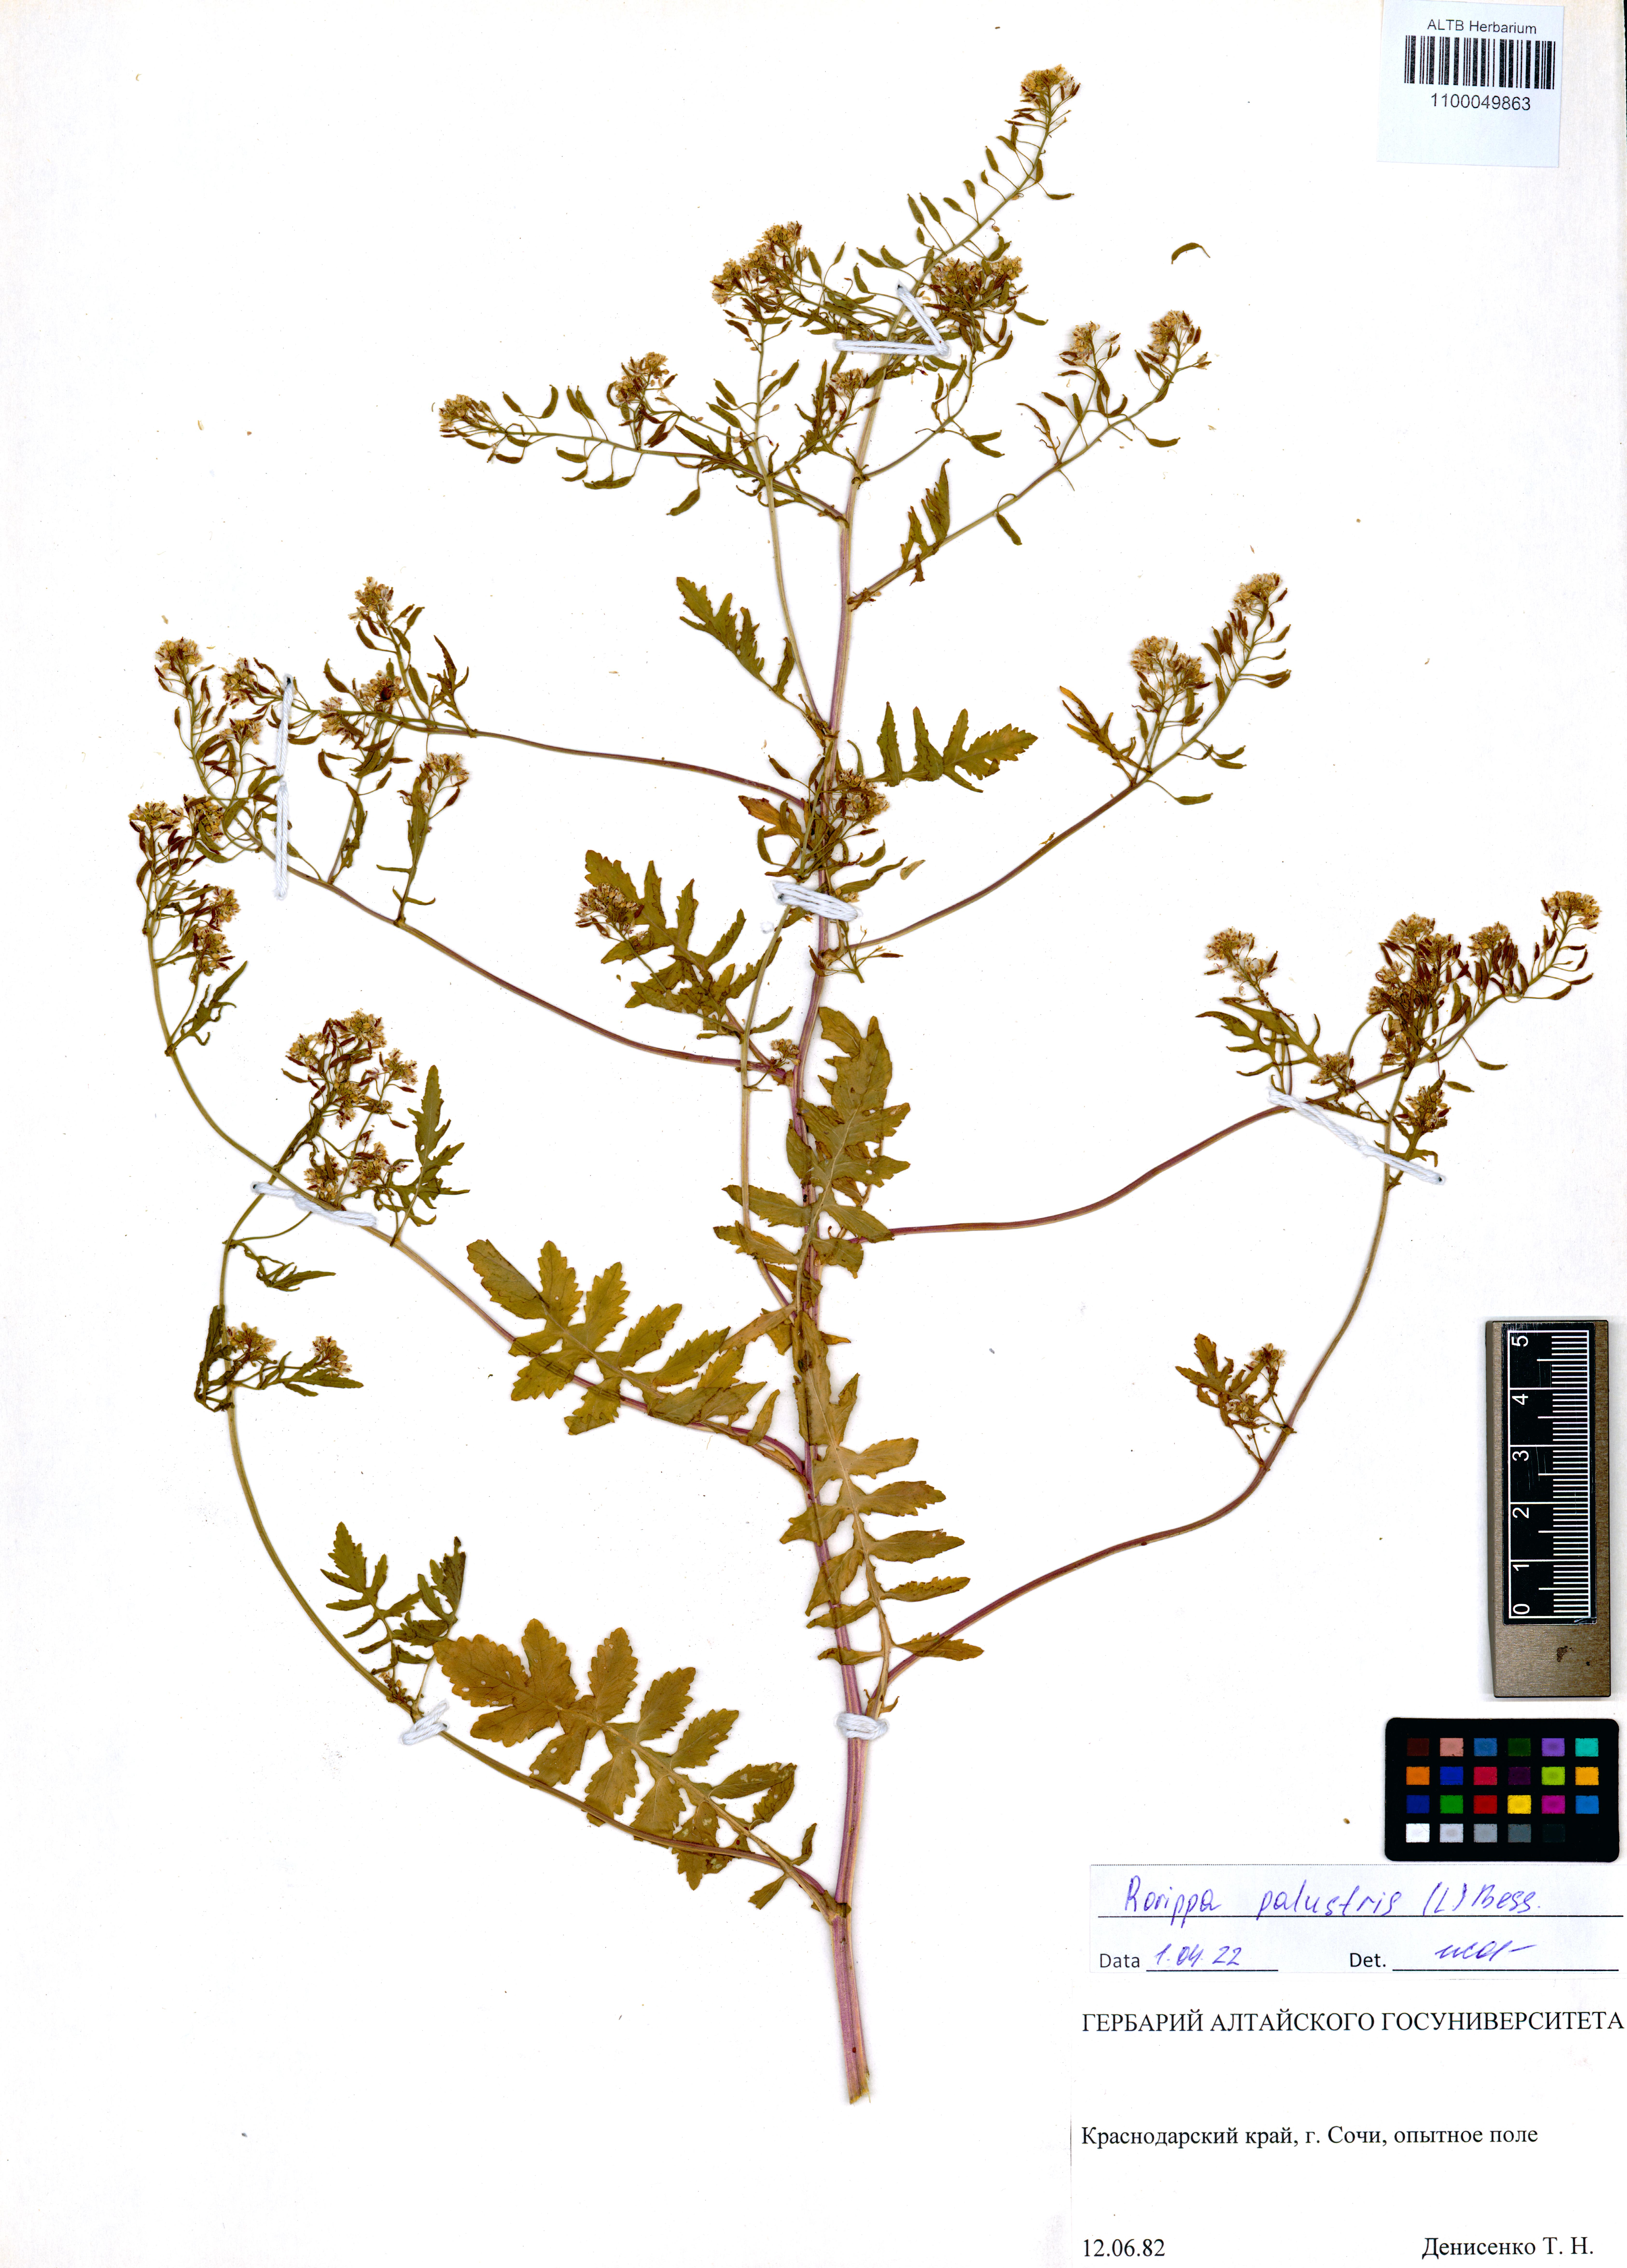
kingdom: Plantae
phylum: Tracheophyta
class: Magnoliopsida
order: Brassicales
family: Brassicaceae
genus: Rorippa
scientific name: Rorippa palustris
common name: Marsh yellow-cress
